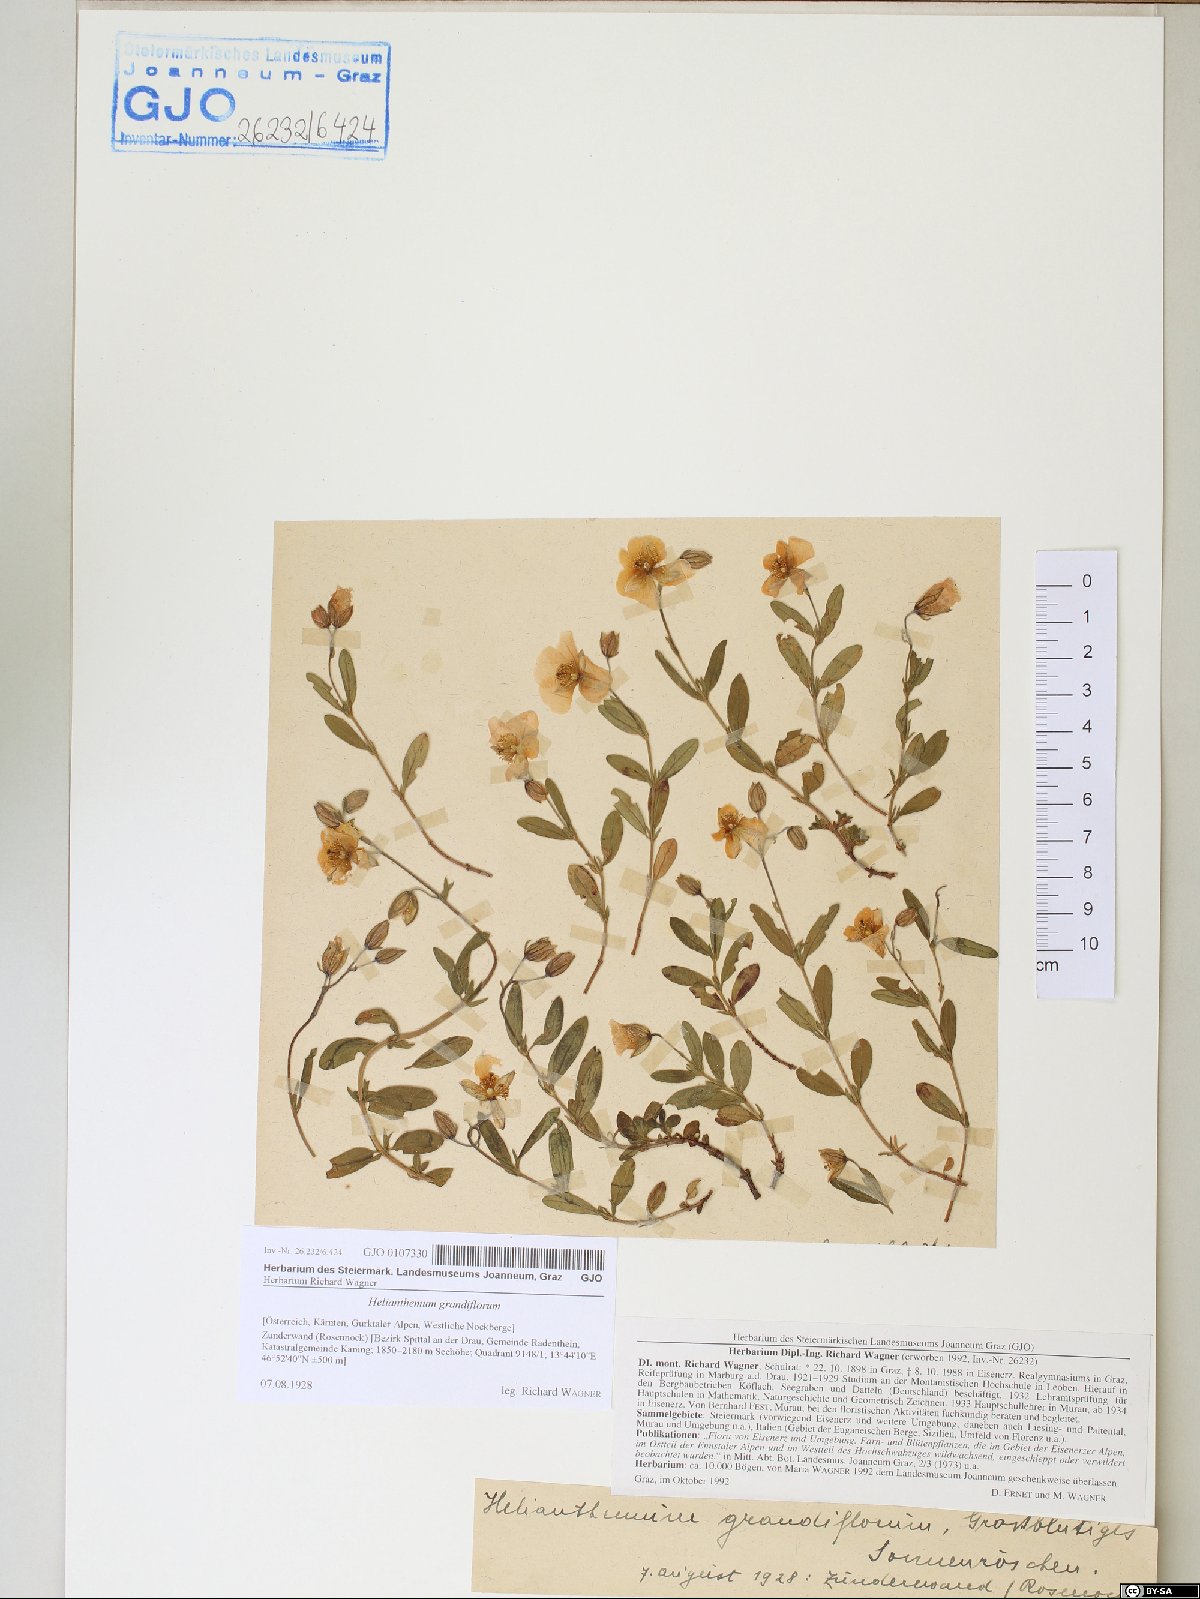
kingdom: Plantae
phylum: Tracheophyta
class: Magnoliopsida
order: Malvales
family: Cistaceae
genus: Helianthemum
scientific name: Helianthemum nummularium
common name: Common rock-rose
